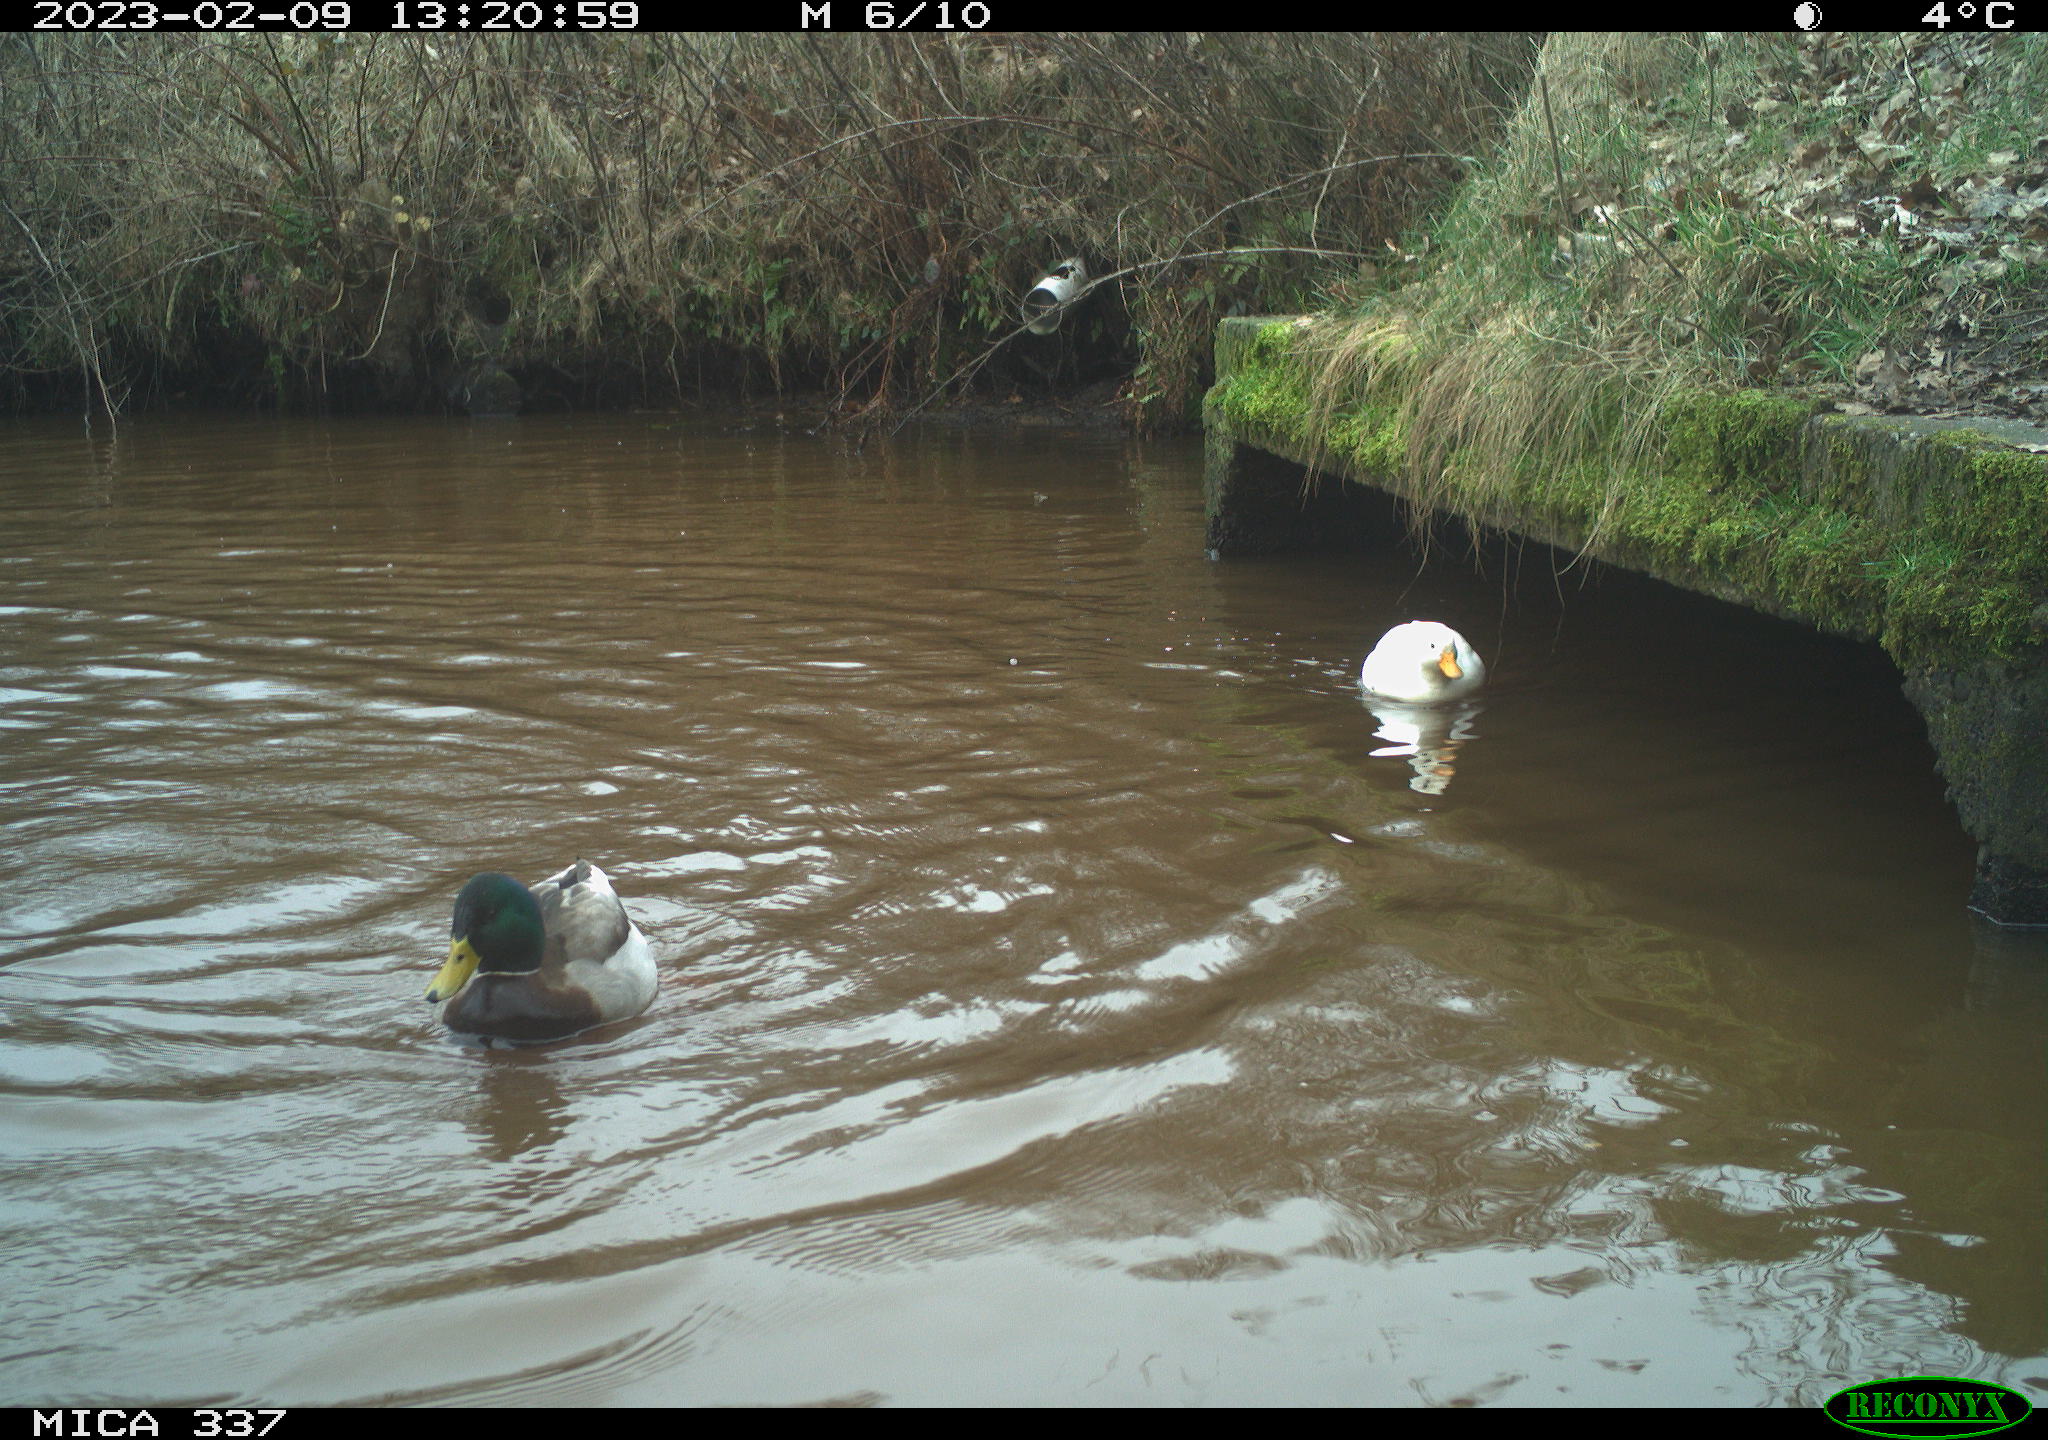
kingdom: Animalia
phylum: Chordata
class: Aves
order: Anseriformes
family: Anatidae
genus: Anas
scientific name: Anas
